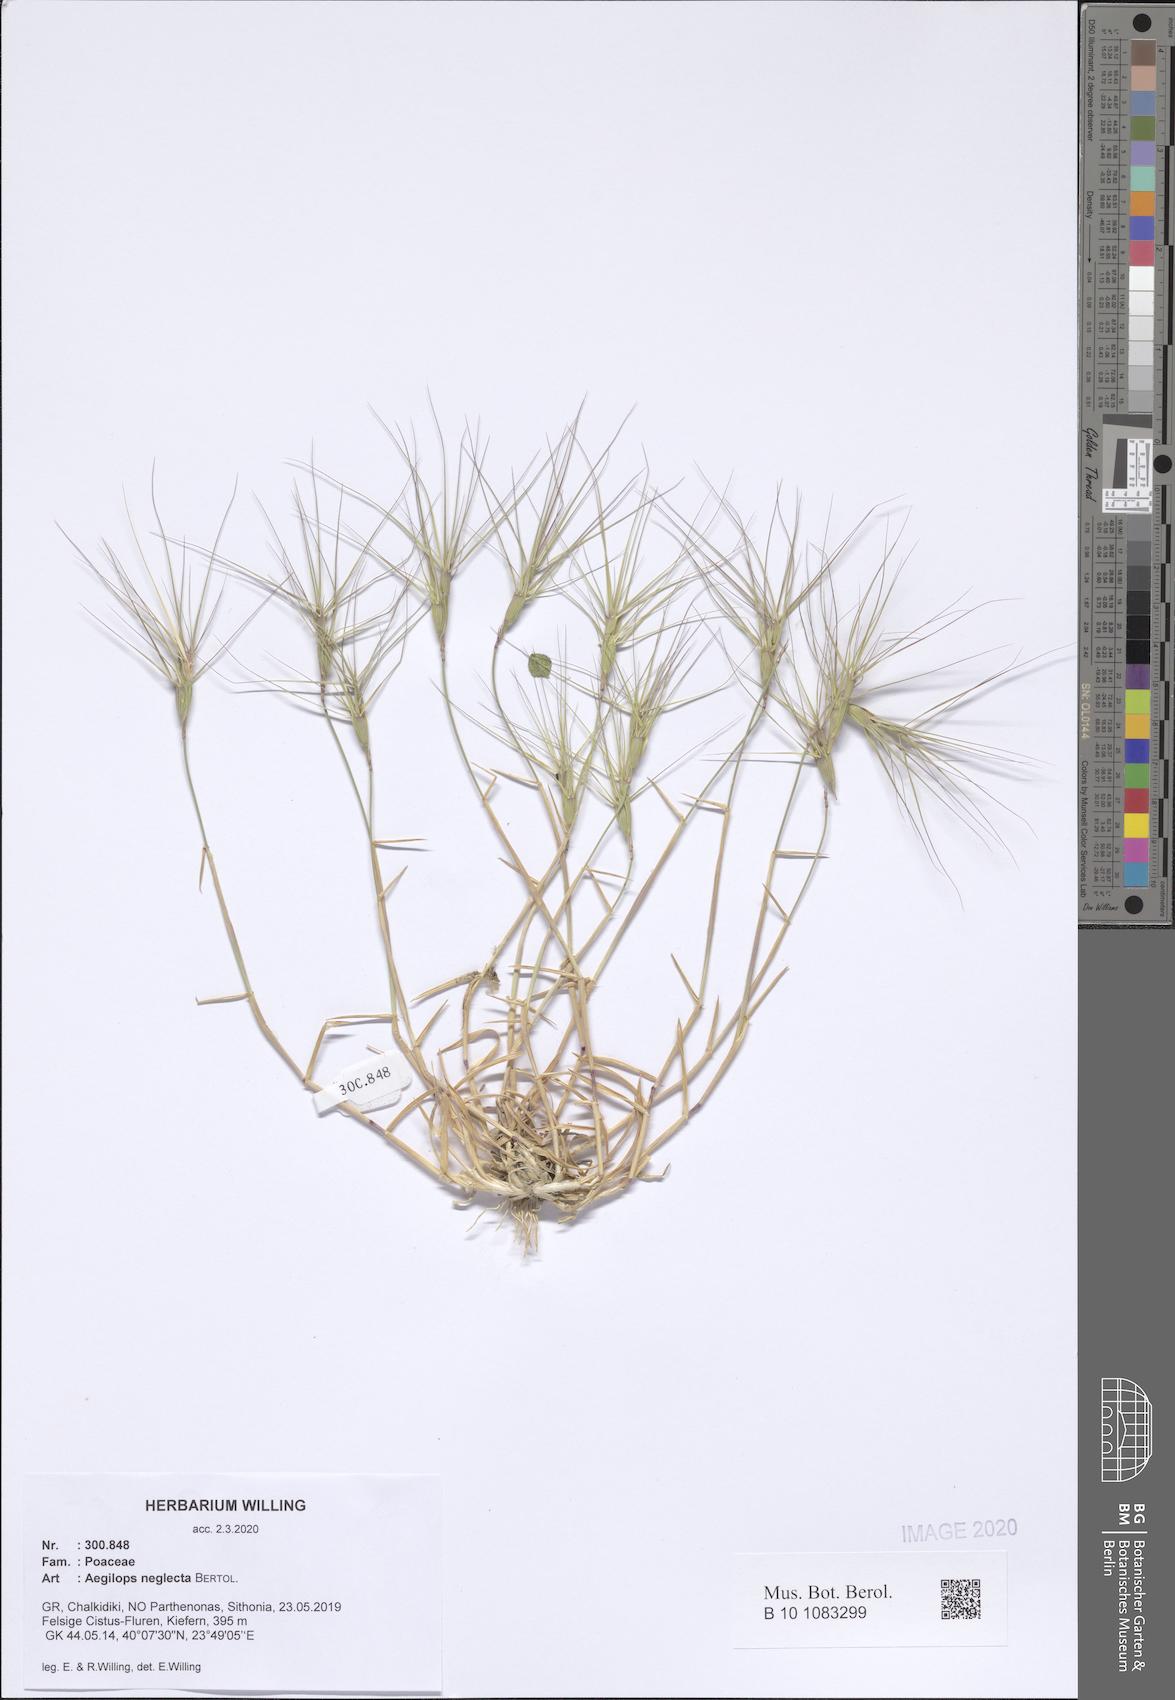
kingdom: Plantae
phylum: Tracheophyta
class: Liliopsida
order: Poales
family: Poaceae
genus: Aegilops
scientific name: Aegilops neglecta
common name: Three-awn goat grass
